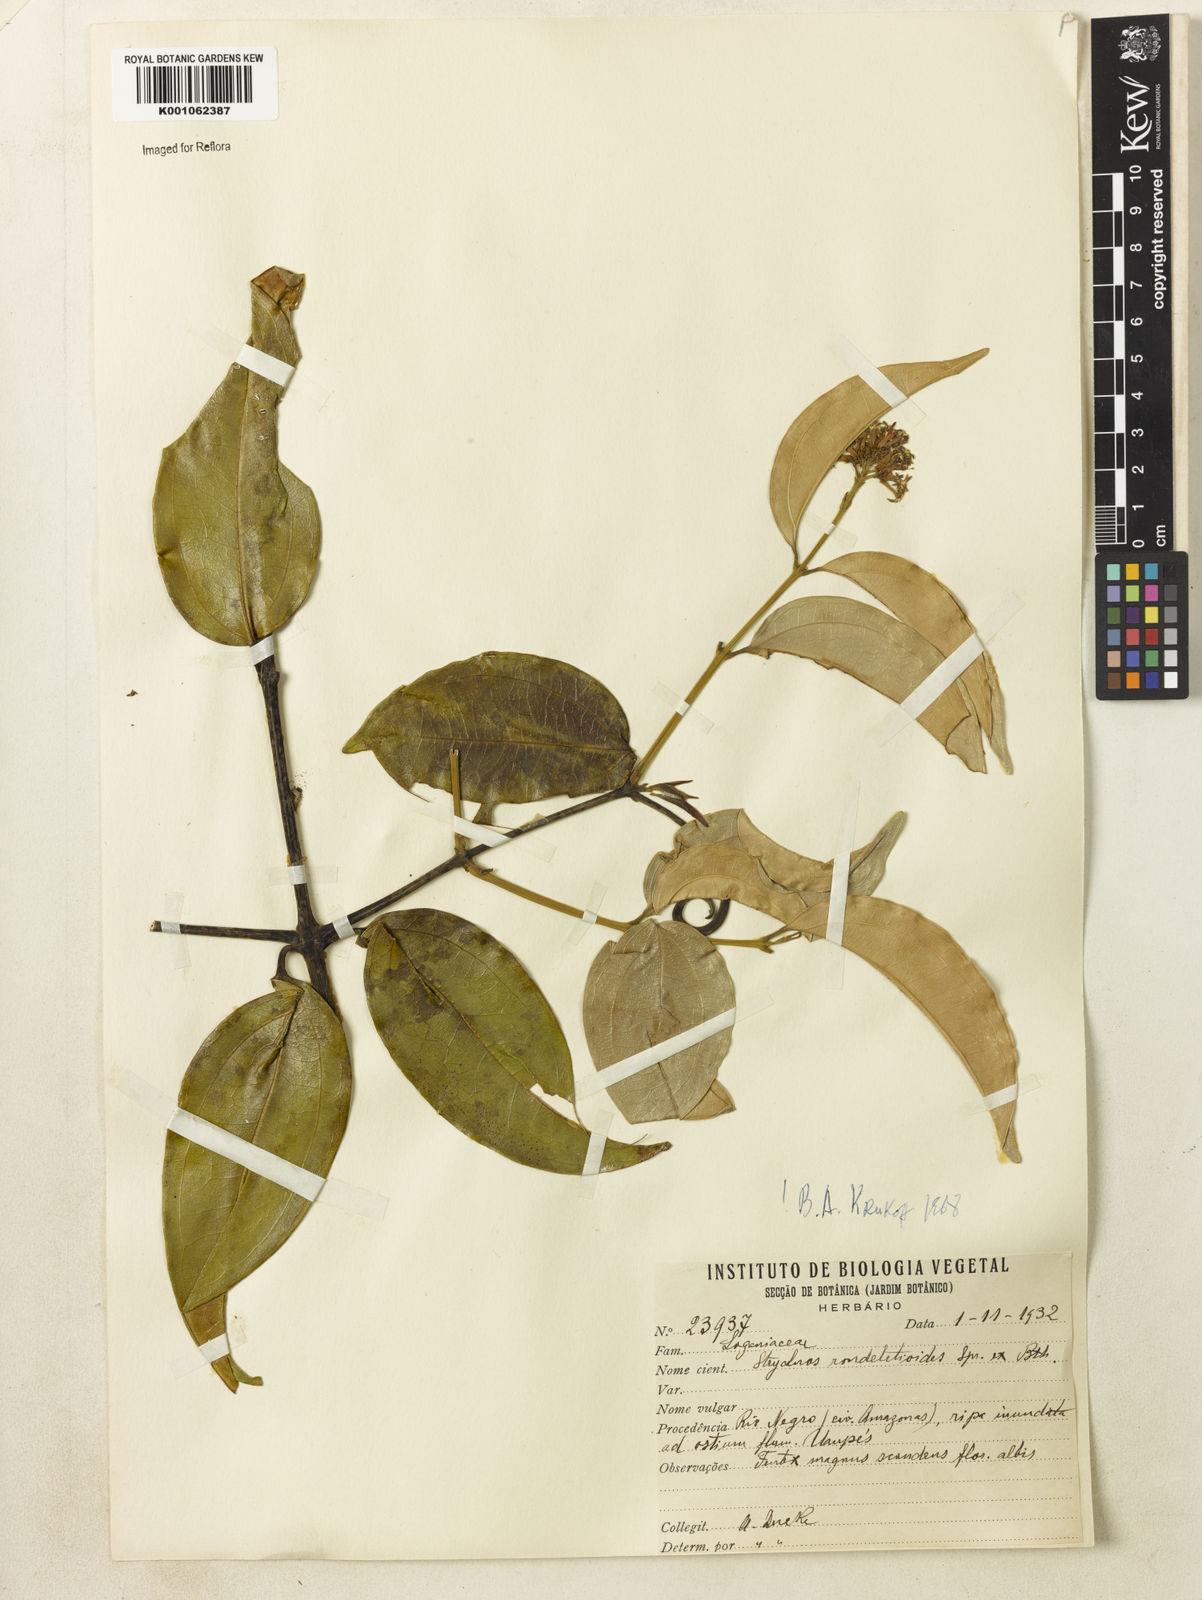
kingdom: Plantae
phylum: Tracheophyta
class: Magnoliopsida
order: Gentianales
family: Loganiaceae
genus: Strychnos
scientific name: Strychnos rondeletioides
